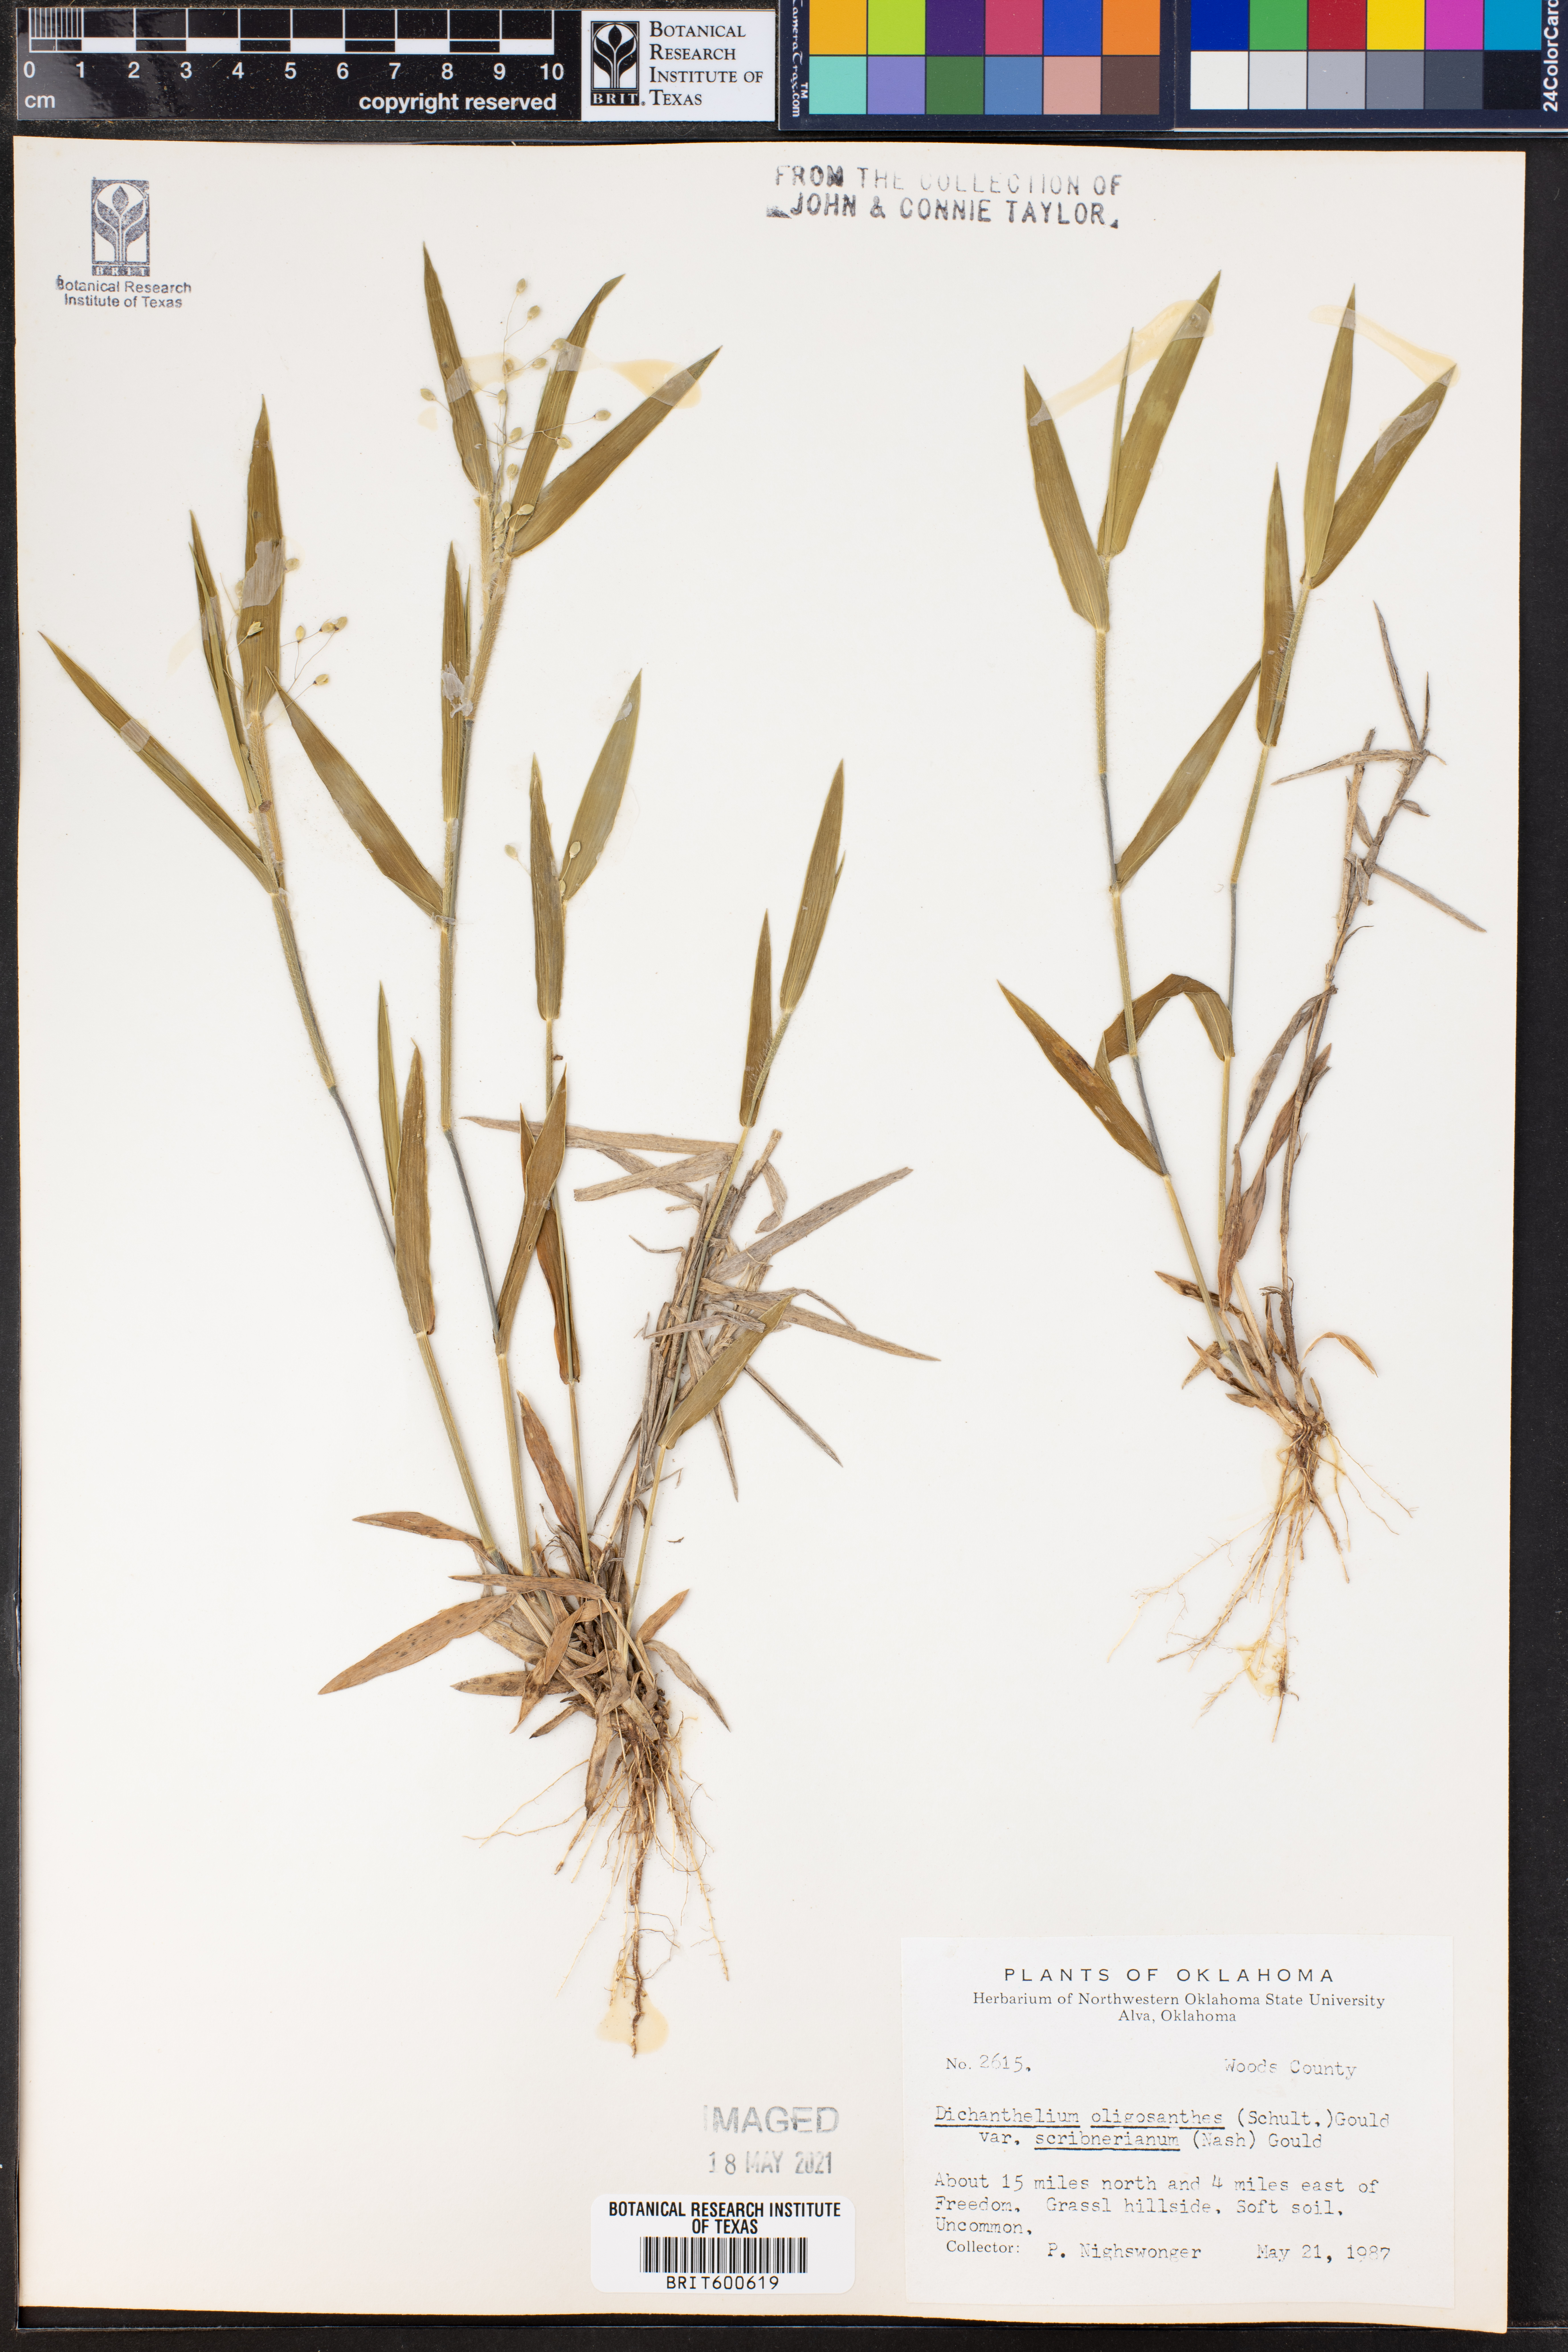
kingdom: Plantae
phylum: Tracheophyta
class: Liliopsida
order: Poales
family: Poaceae
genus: Dichanthelium
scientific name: Dichanthelium scribnerianum
